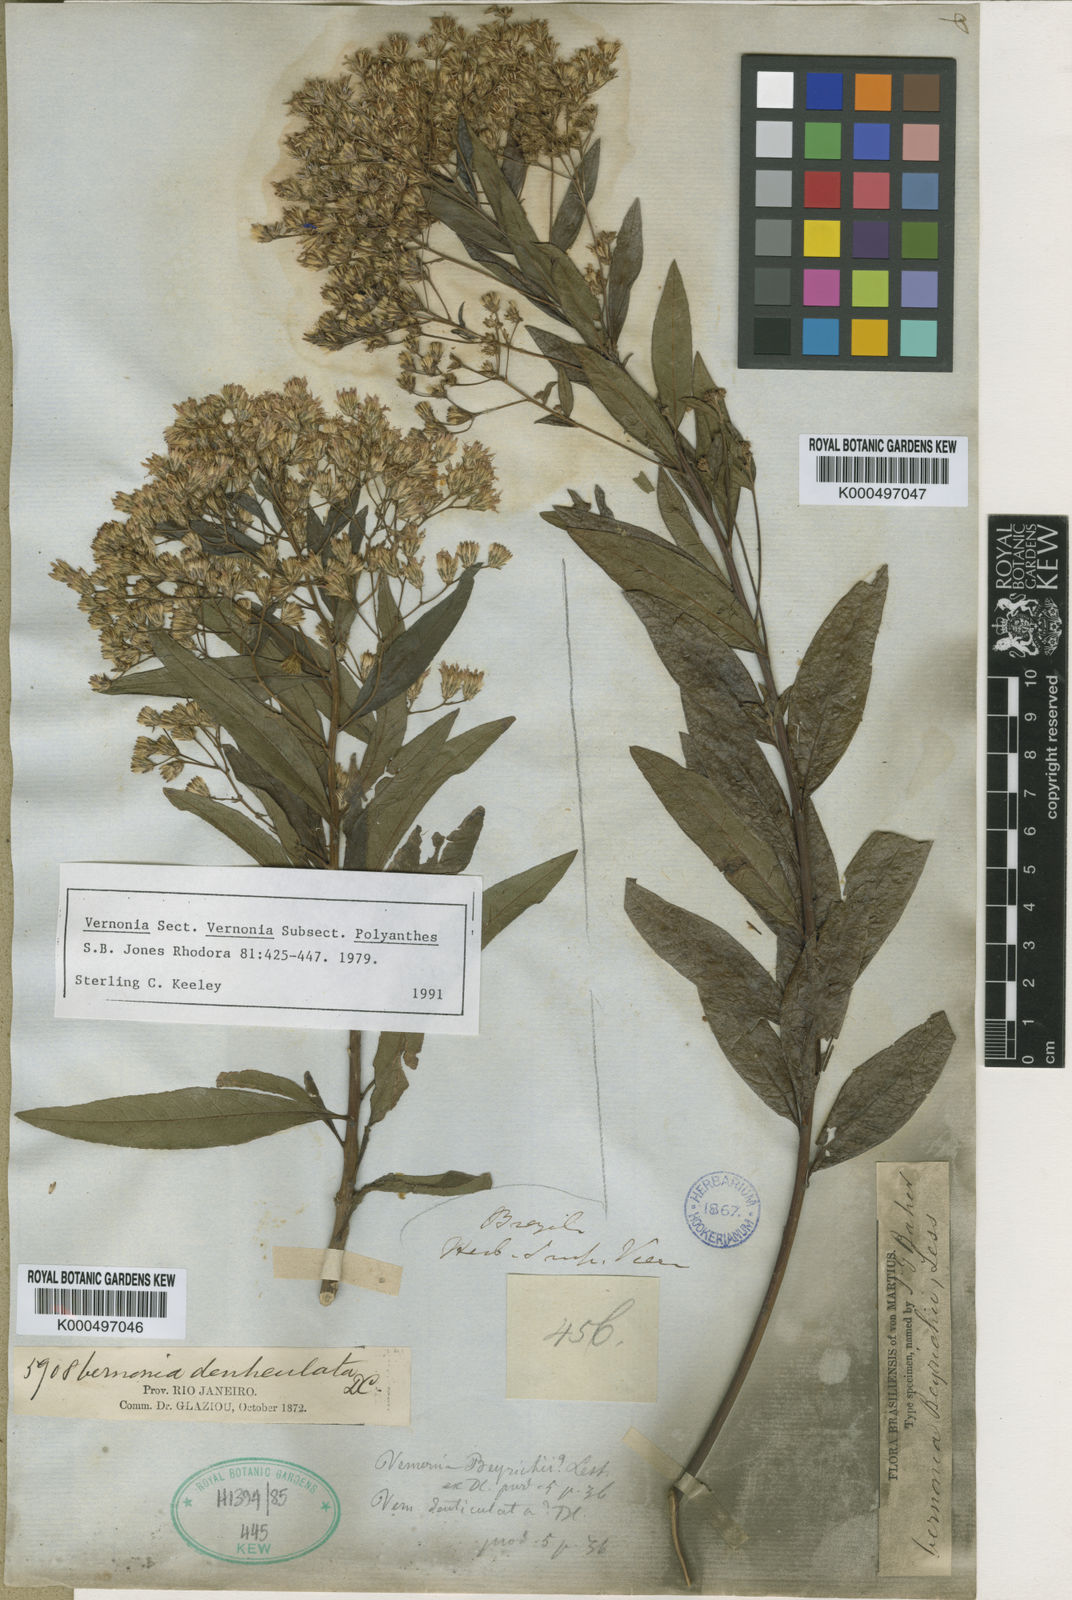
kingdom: Plantae
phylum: Tracheophyta
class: Magnoliopsida
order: Asterales
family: Asteraceae
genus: Vernonanthura
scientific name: Vernonanthura beyrichii
